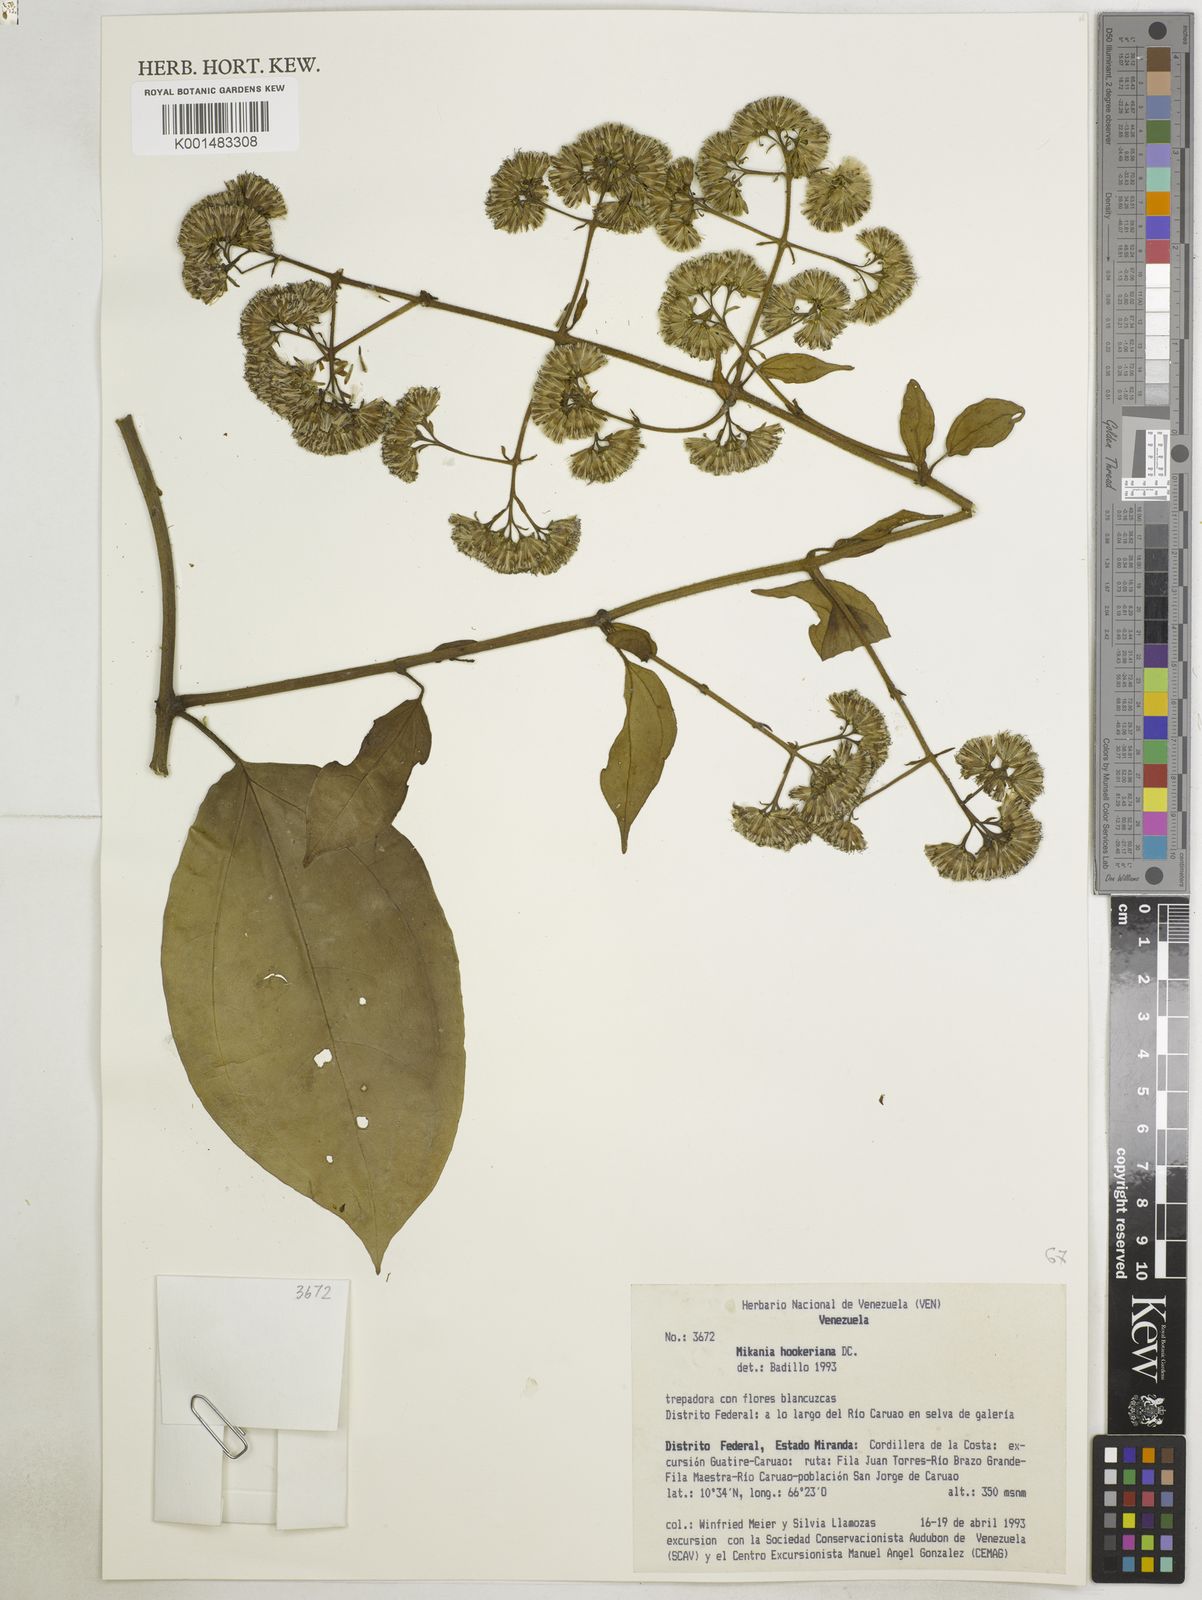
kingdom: Plantae
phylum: Tracheophyta
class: Magnoliopsida
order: Asterales
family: Asteraceae
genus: Mikania
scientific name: Mikania hookeriana
